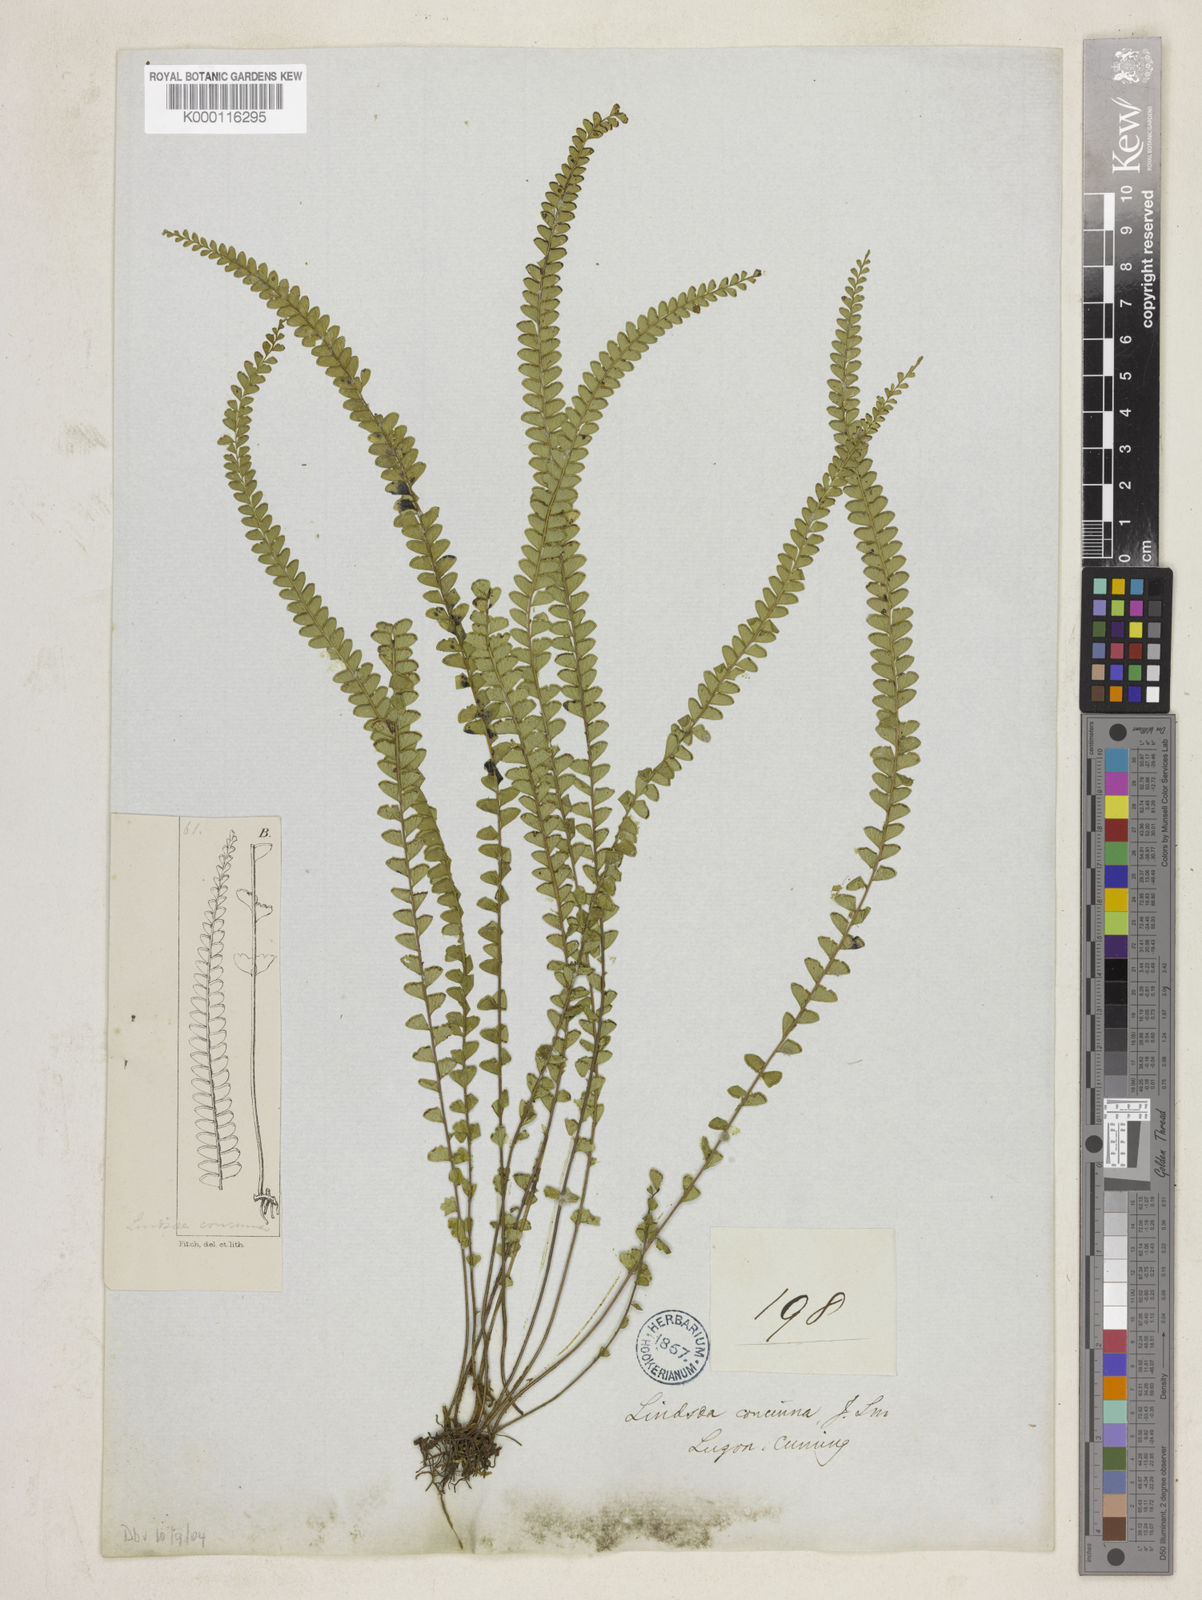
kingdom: Plantae
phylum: Tracheophyta
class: Polypodiopsida
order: Polypodiales
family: Lindsaeaceae
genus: Lindsaea
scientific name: Lindsaea lucida
